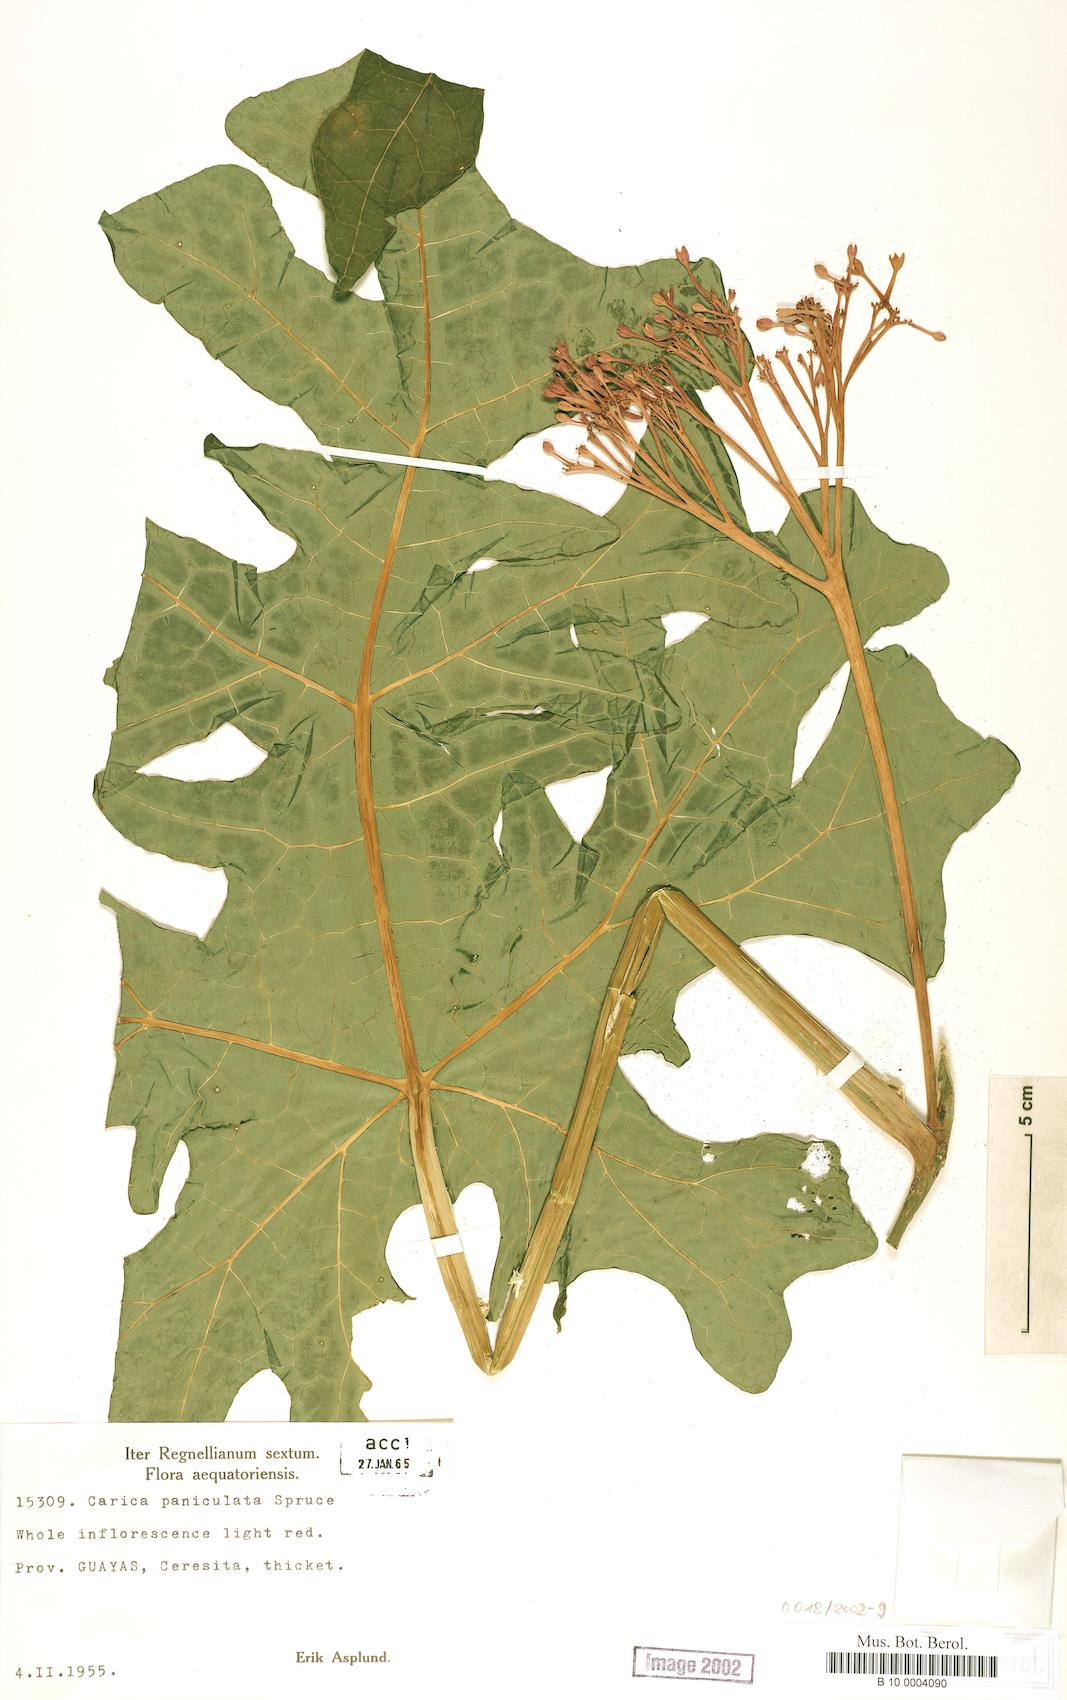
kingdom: Plantae
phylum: Tracheophyta
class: Magnoliopsida
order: Brassicales
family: Caricaceae
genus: Vasconcellea
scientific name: Vasconcellea parviflora
